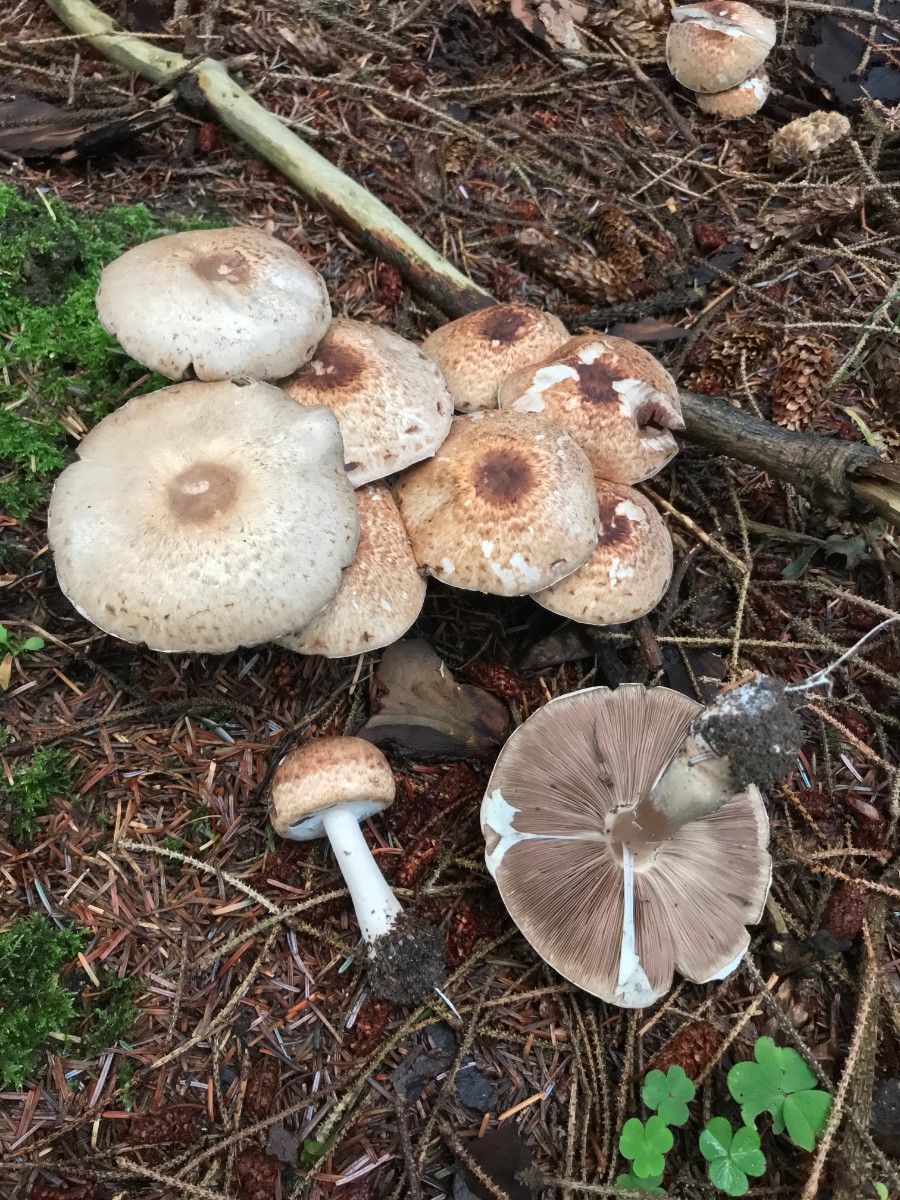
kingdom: Fungi
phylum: Basidiomycota
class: Agaricomycetes
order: Agaricales
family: Agaricaceae
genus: Agaricus
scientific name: Agaricus impudicus
